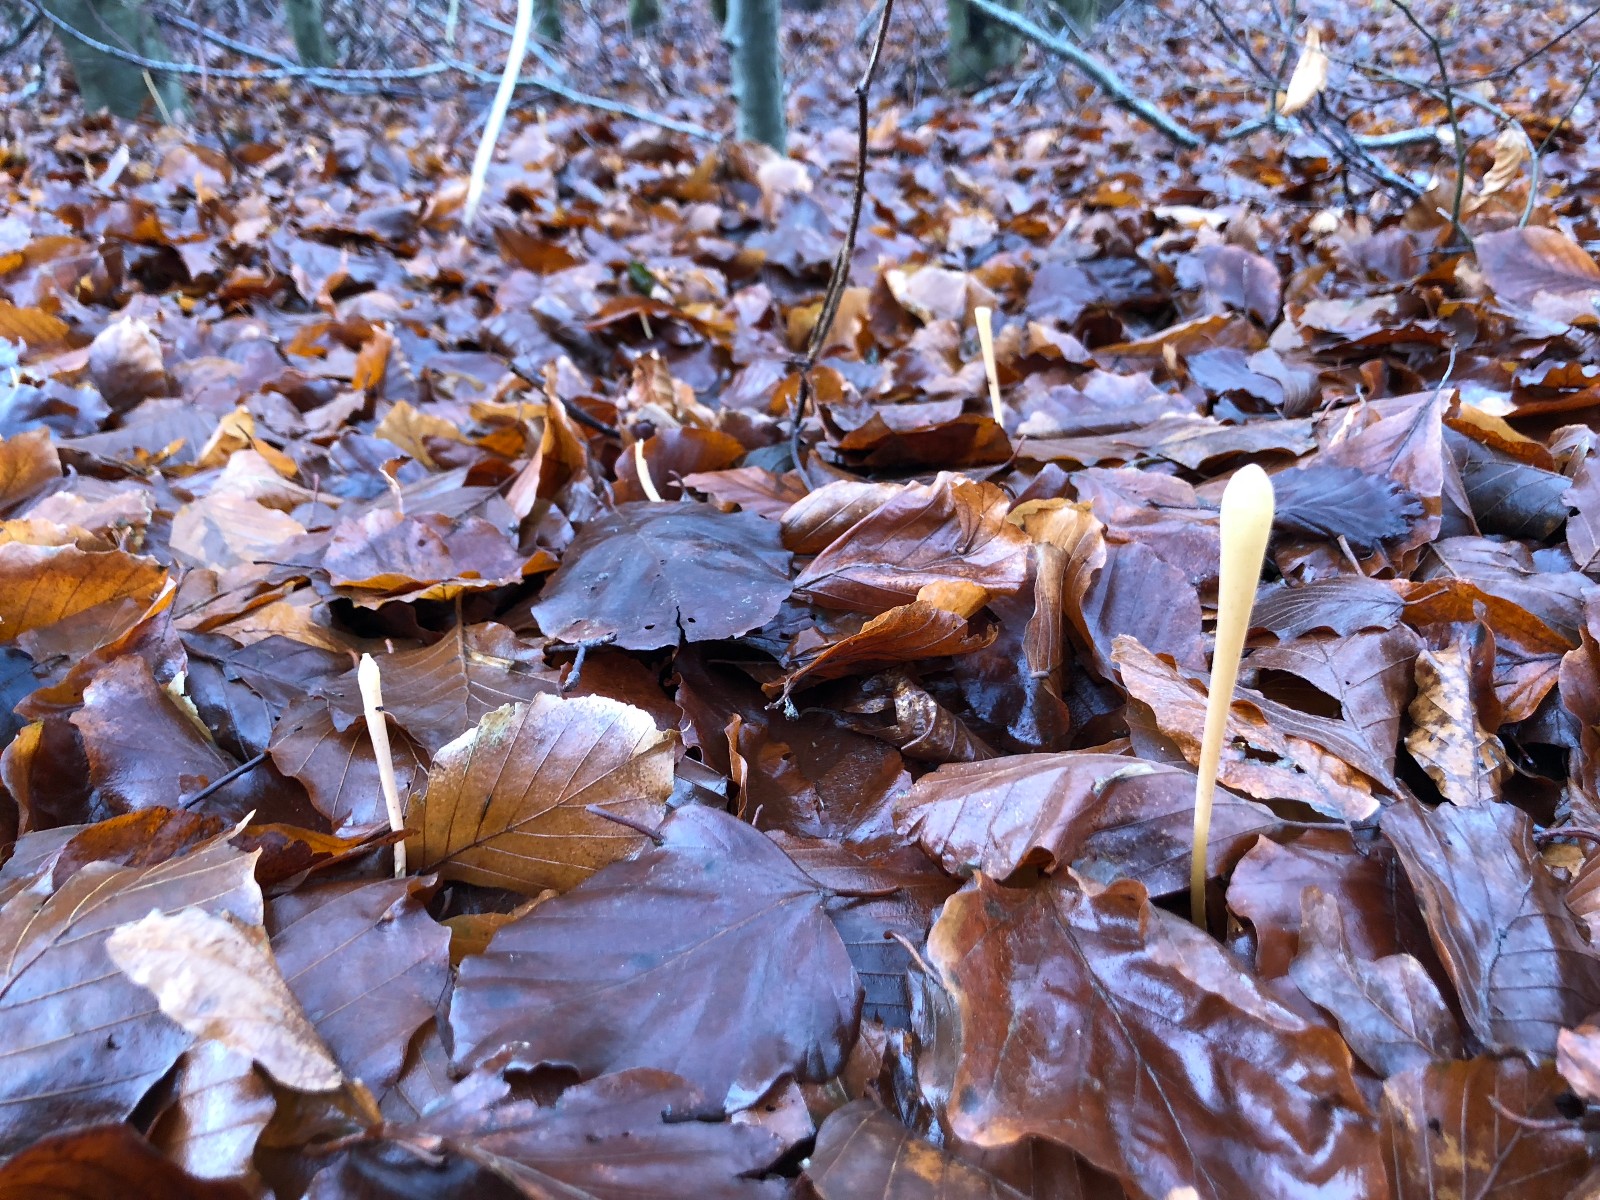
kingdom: Fungi
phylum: Basidiomycota
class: Agaricomycetes
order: Agaricales
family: Typhulaceae
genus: Typhula
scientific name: Typhula fistulosa
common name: pibet rørkølle
